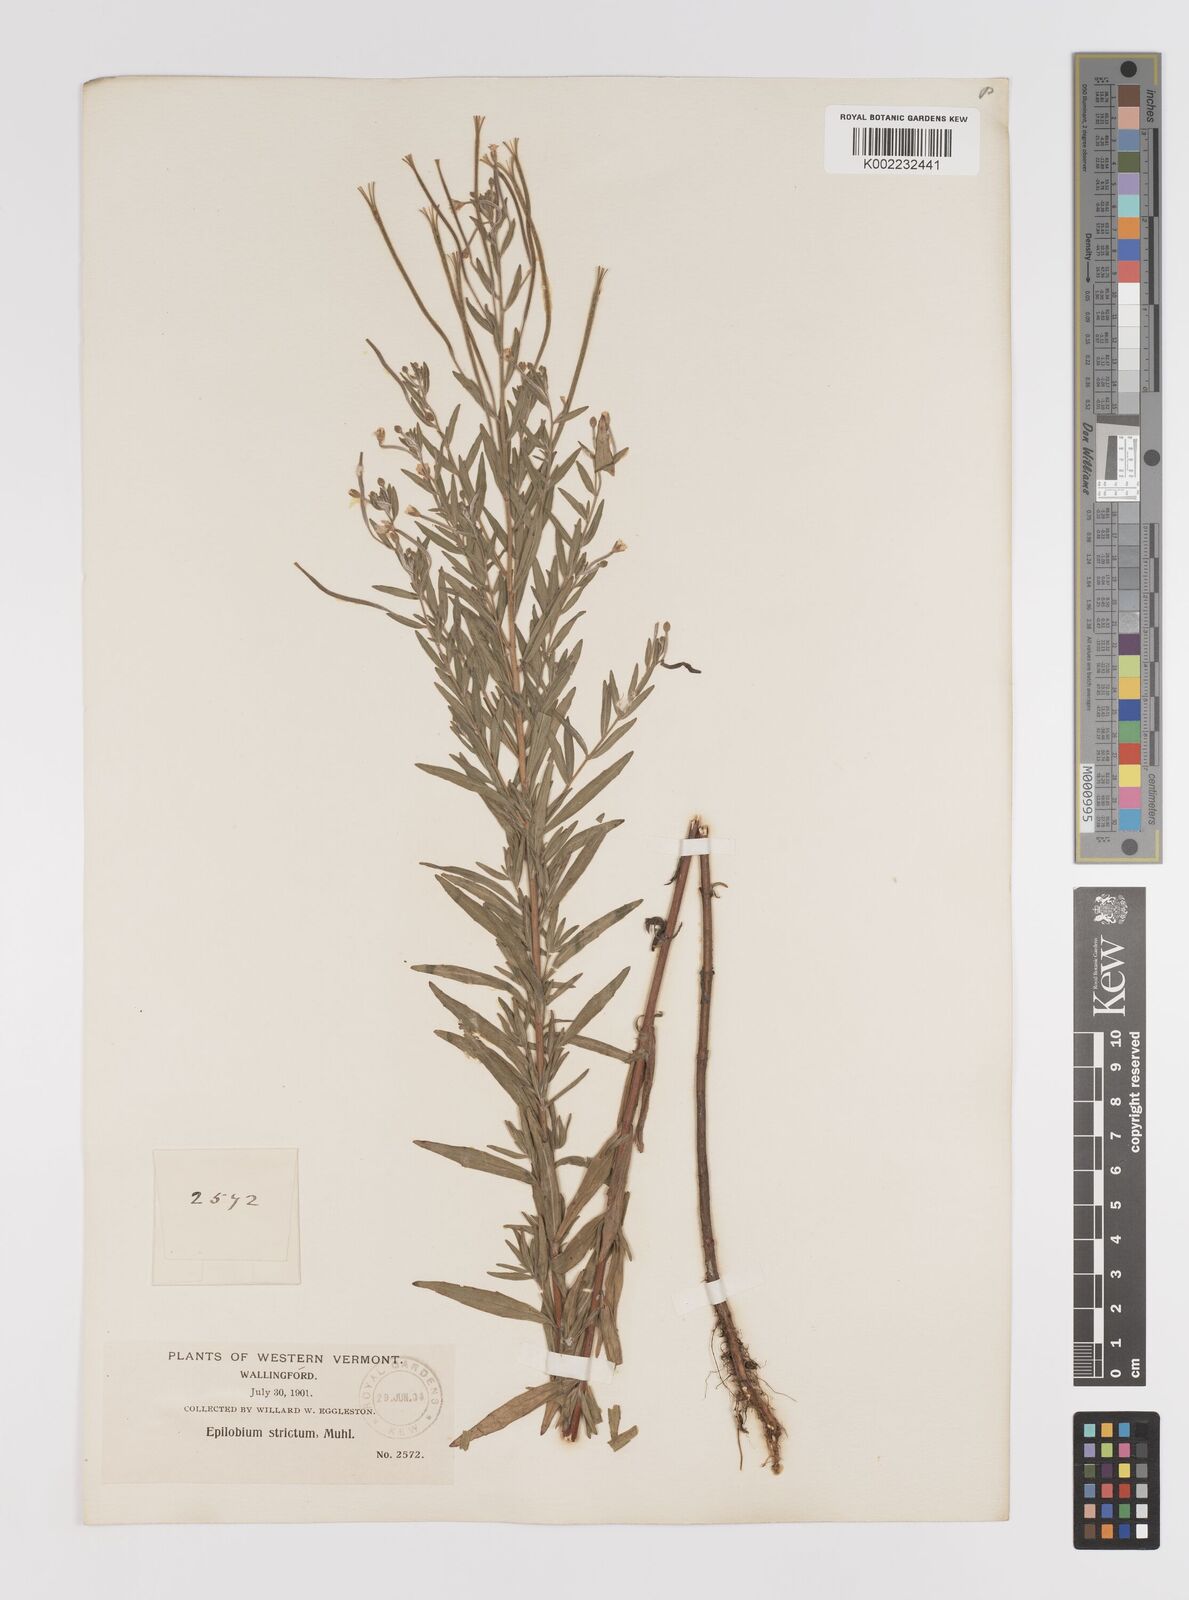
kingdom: Plantae
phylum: Tracheophyta
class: Magnoliopsida
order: Myrtales
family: Onagraceae
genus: Epilobium
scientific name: Epilobium densum
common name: Downy willowherb
